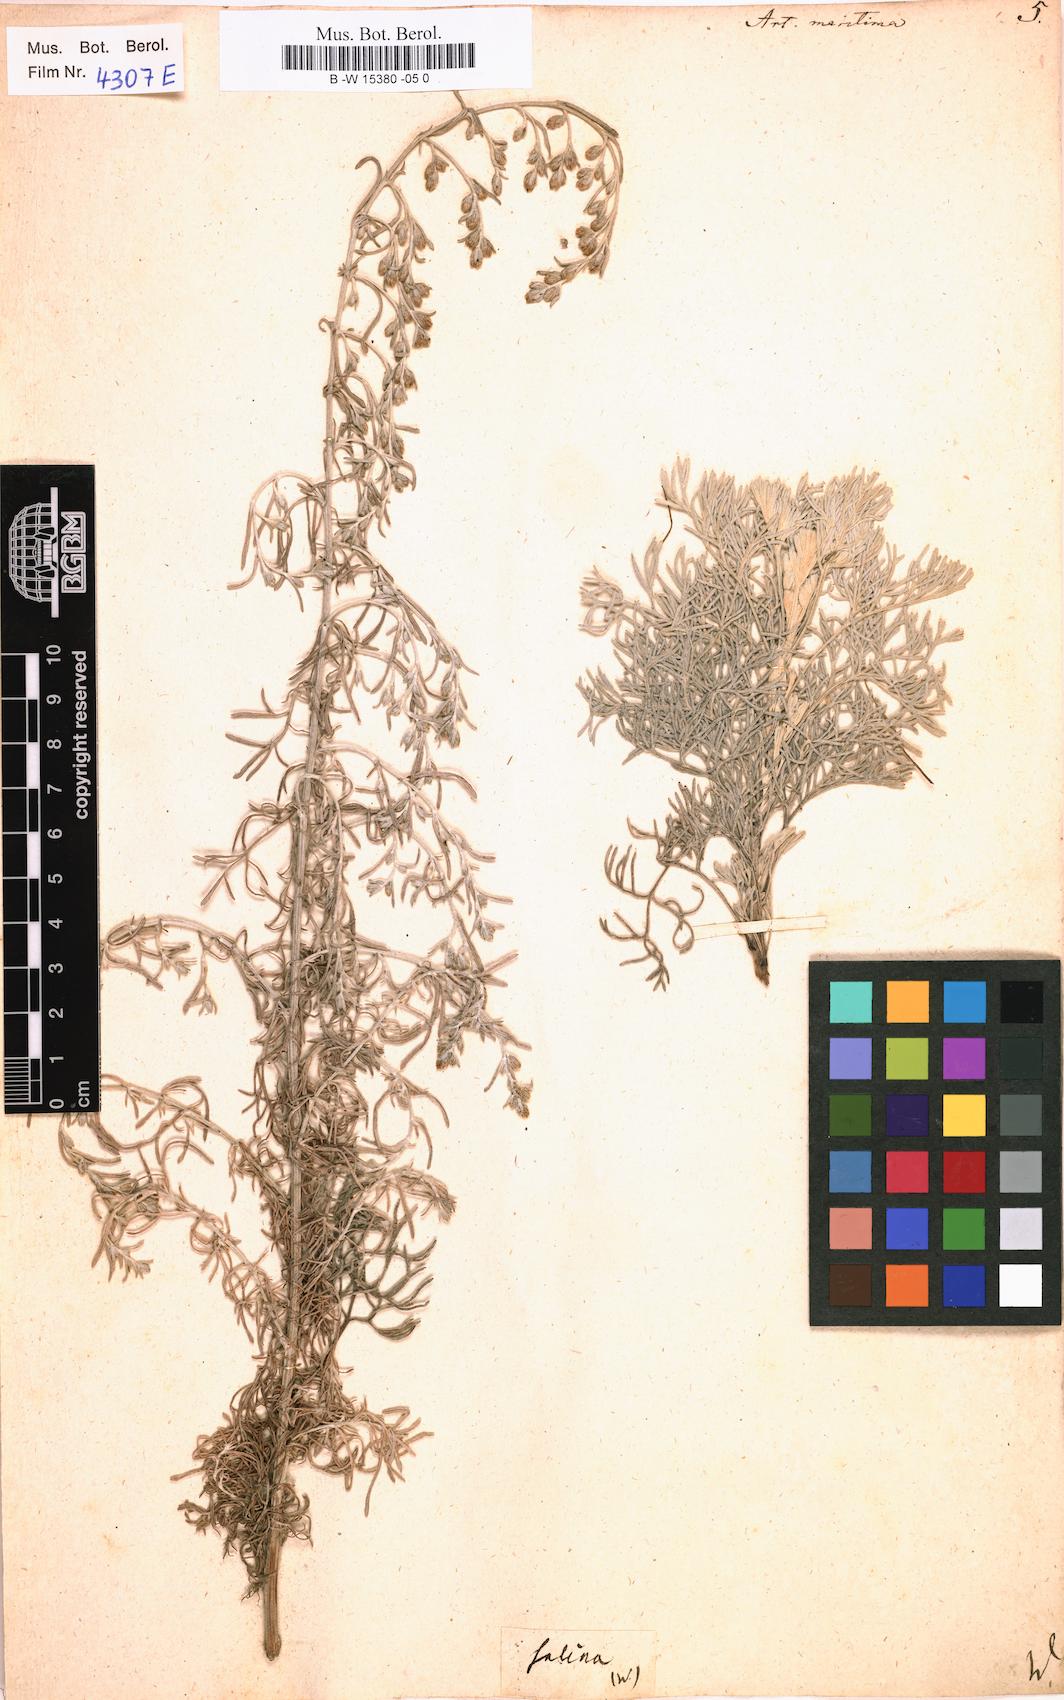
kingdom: Plantae
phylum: Tracheophyta
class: Magnoliopsida
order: Asterales
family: Asteraceae
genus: Artemisia
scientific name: Artemisia maritima
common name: Wormseed
